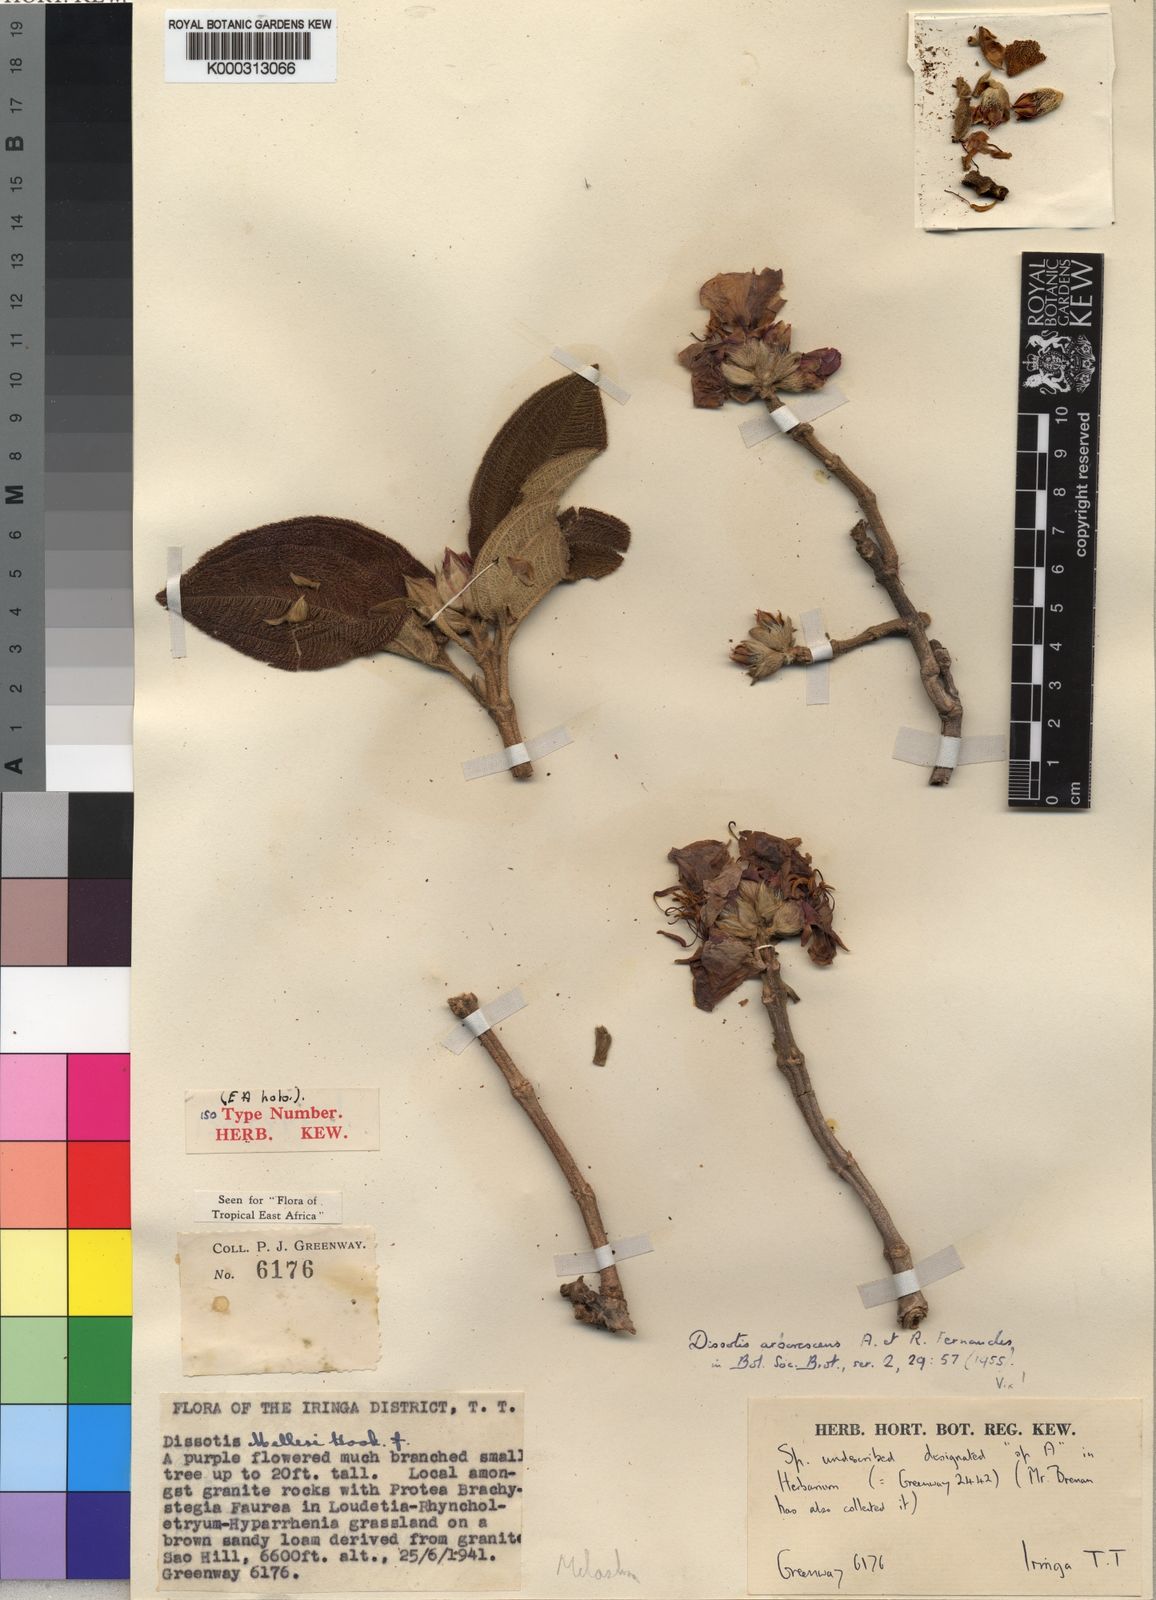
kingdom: Plantae
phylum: Tracheophyta
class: Magnoliopsida
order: Myrtales
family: Melastomataceae
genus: Dissotidendron
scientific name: Dissotidendron arborescens
